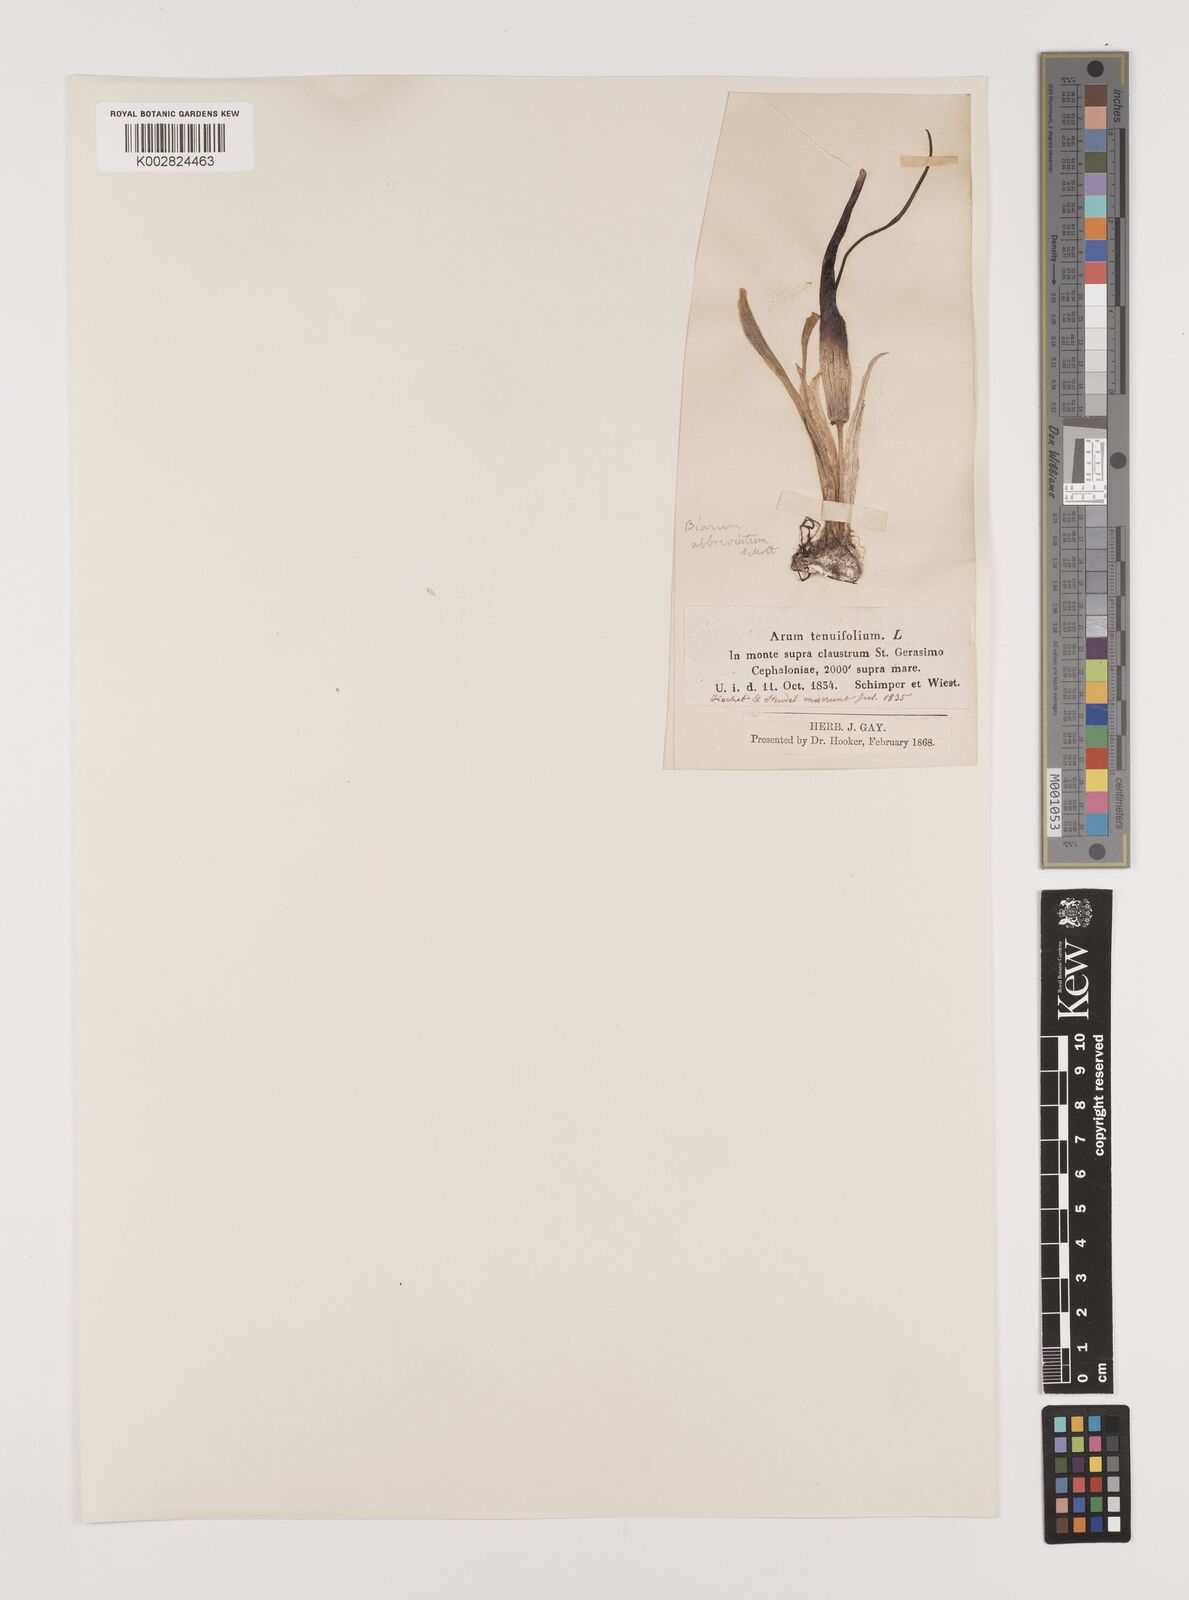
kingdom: Plantae
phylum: Tracheophyta
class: Liliopsida
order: Alismatales
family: Araceae
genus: Biarum
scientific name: Biarum tenuifolium
